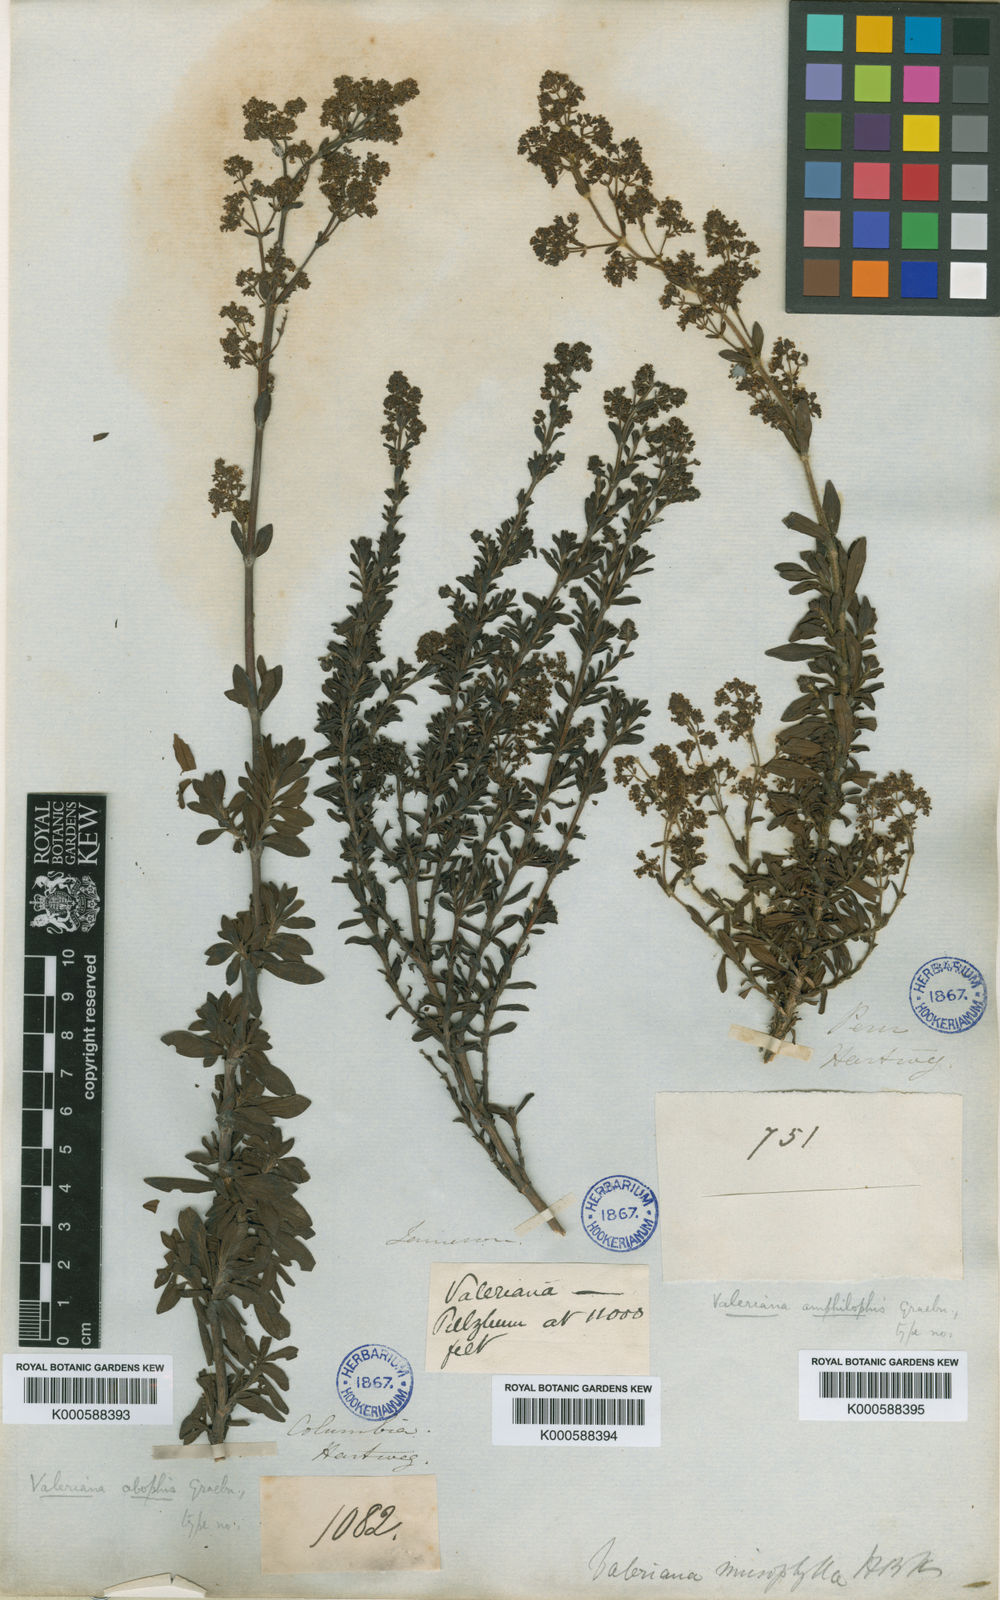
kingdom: Plantae
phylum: Tracheophyta
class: Magnoliopsida
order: Dipsacales
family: Caprifoliaceae
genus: Valeriana
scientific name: Valeriana microphylla
